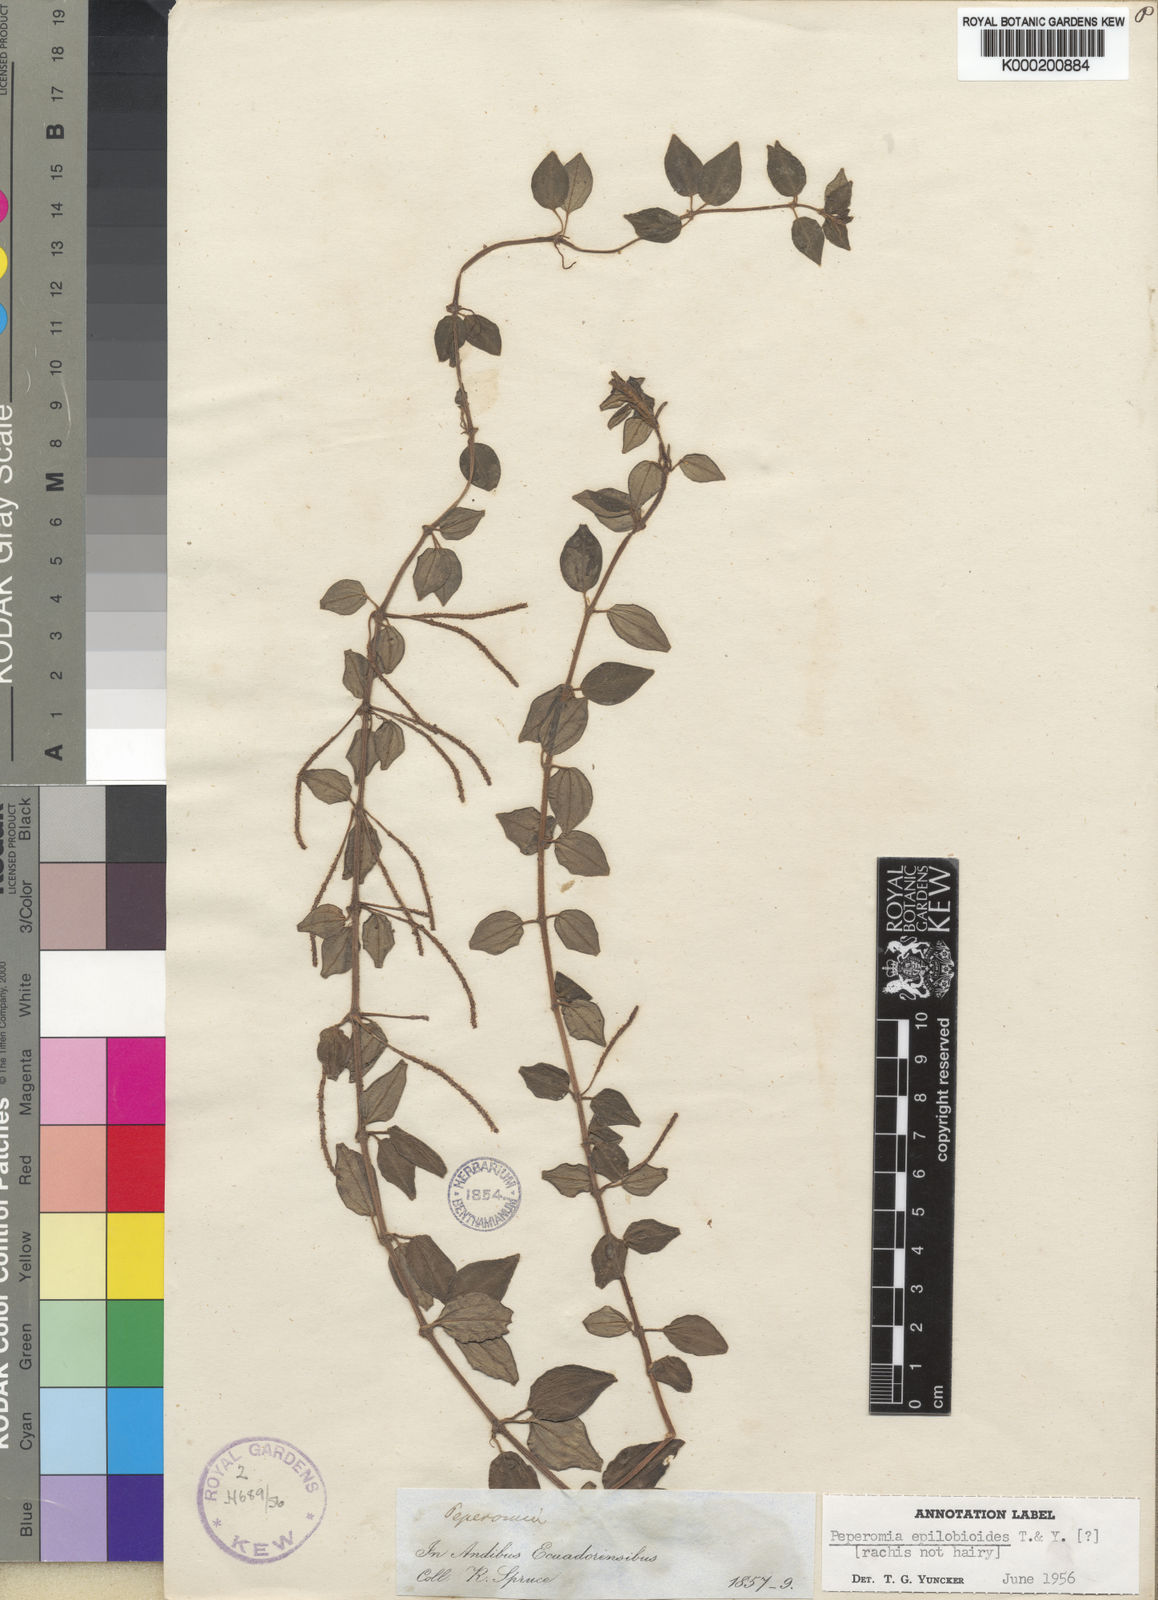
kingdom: Plantae
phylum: Tracheophyta
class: Magnoliopsida
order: Piperales
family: Piperaceae
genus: Peperomia
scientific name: Peperomia epilobioides
